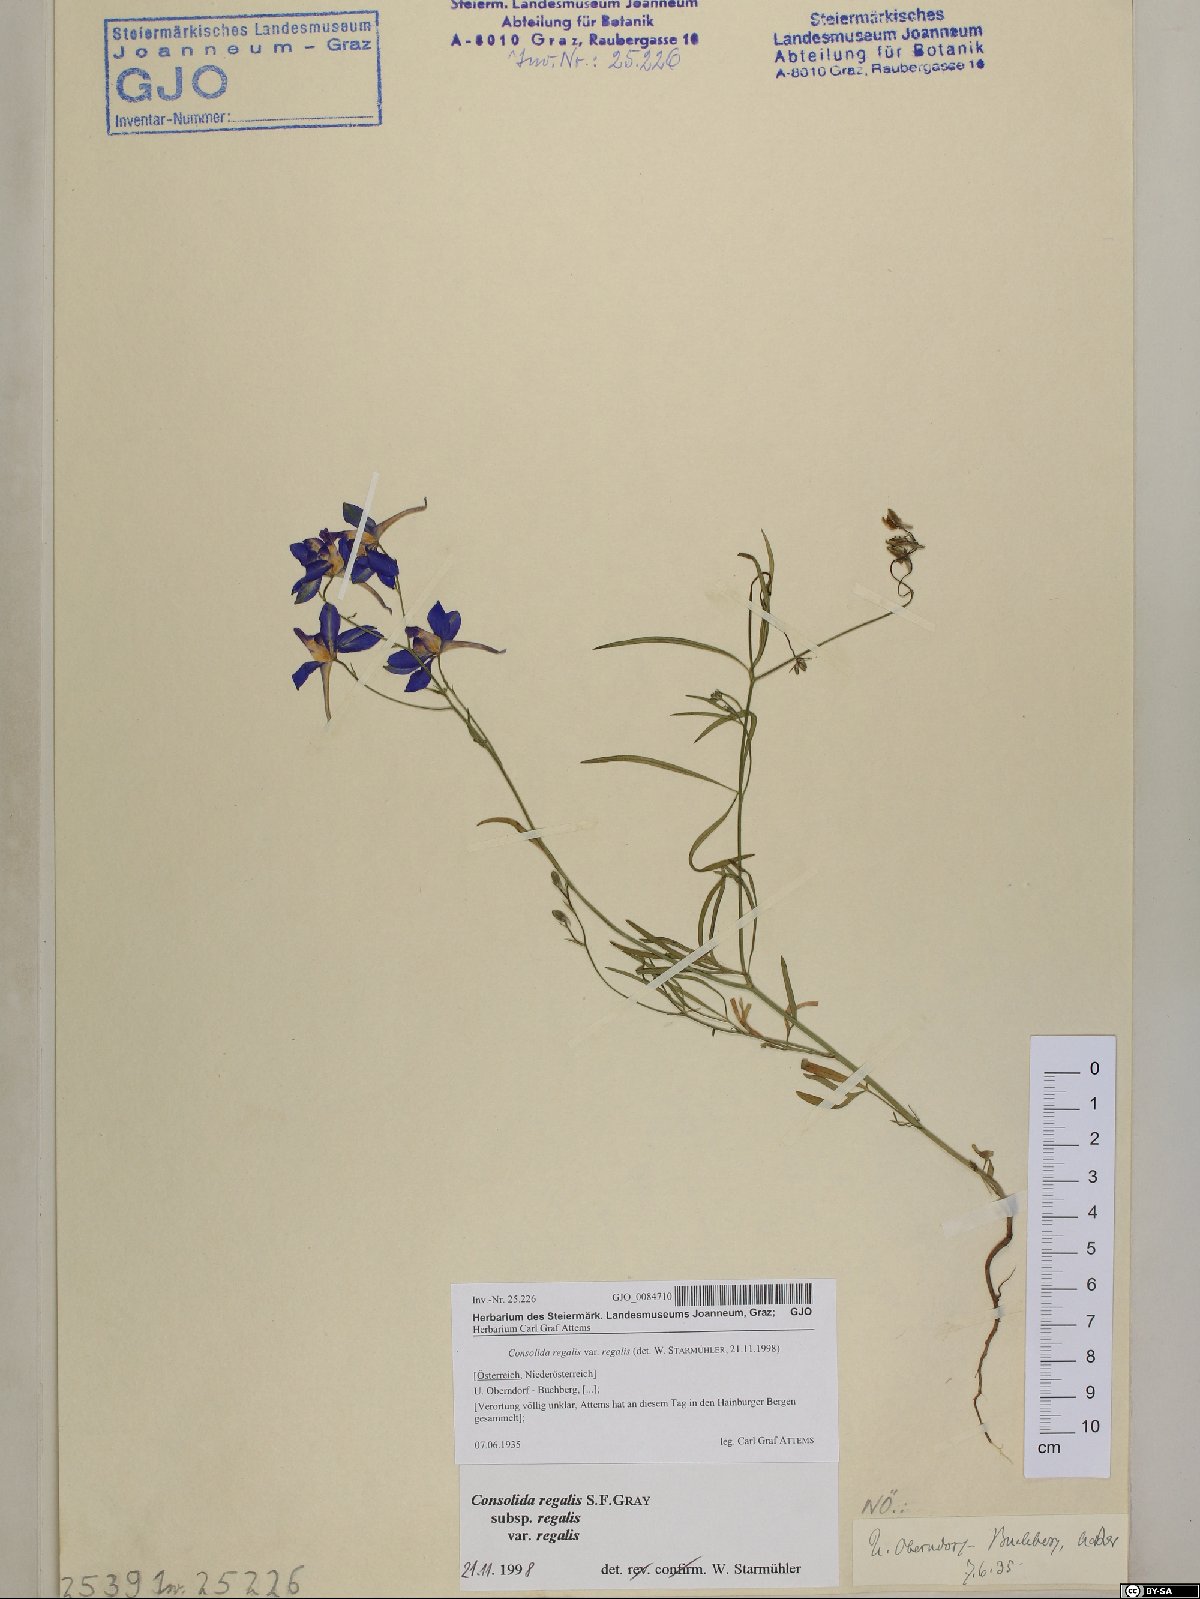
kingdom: Plantae
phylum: Tracheophyta
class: Magnoliopsida
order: Ranunculales
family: Ranunculaceae
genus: Delphinium
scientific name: Delphinium consolida
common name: Branching larkspur
